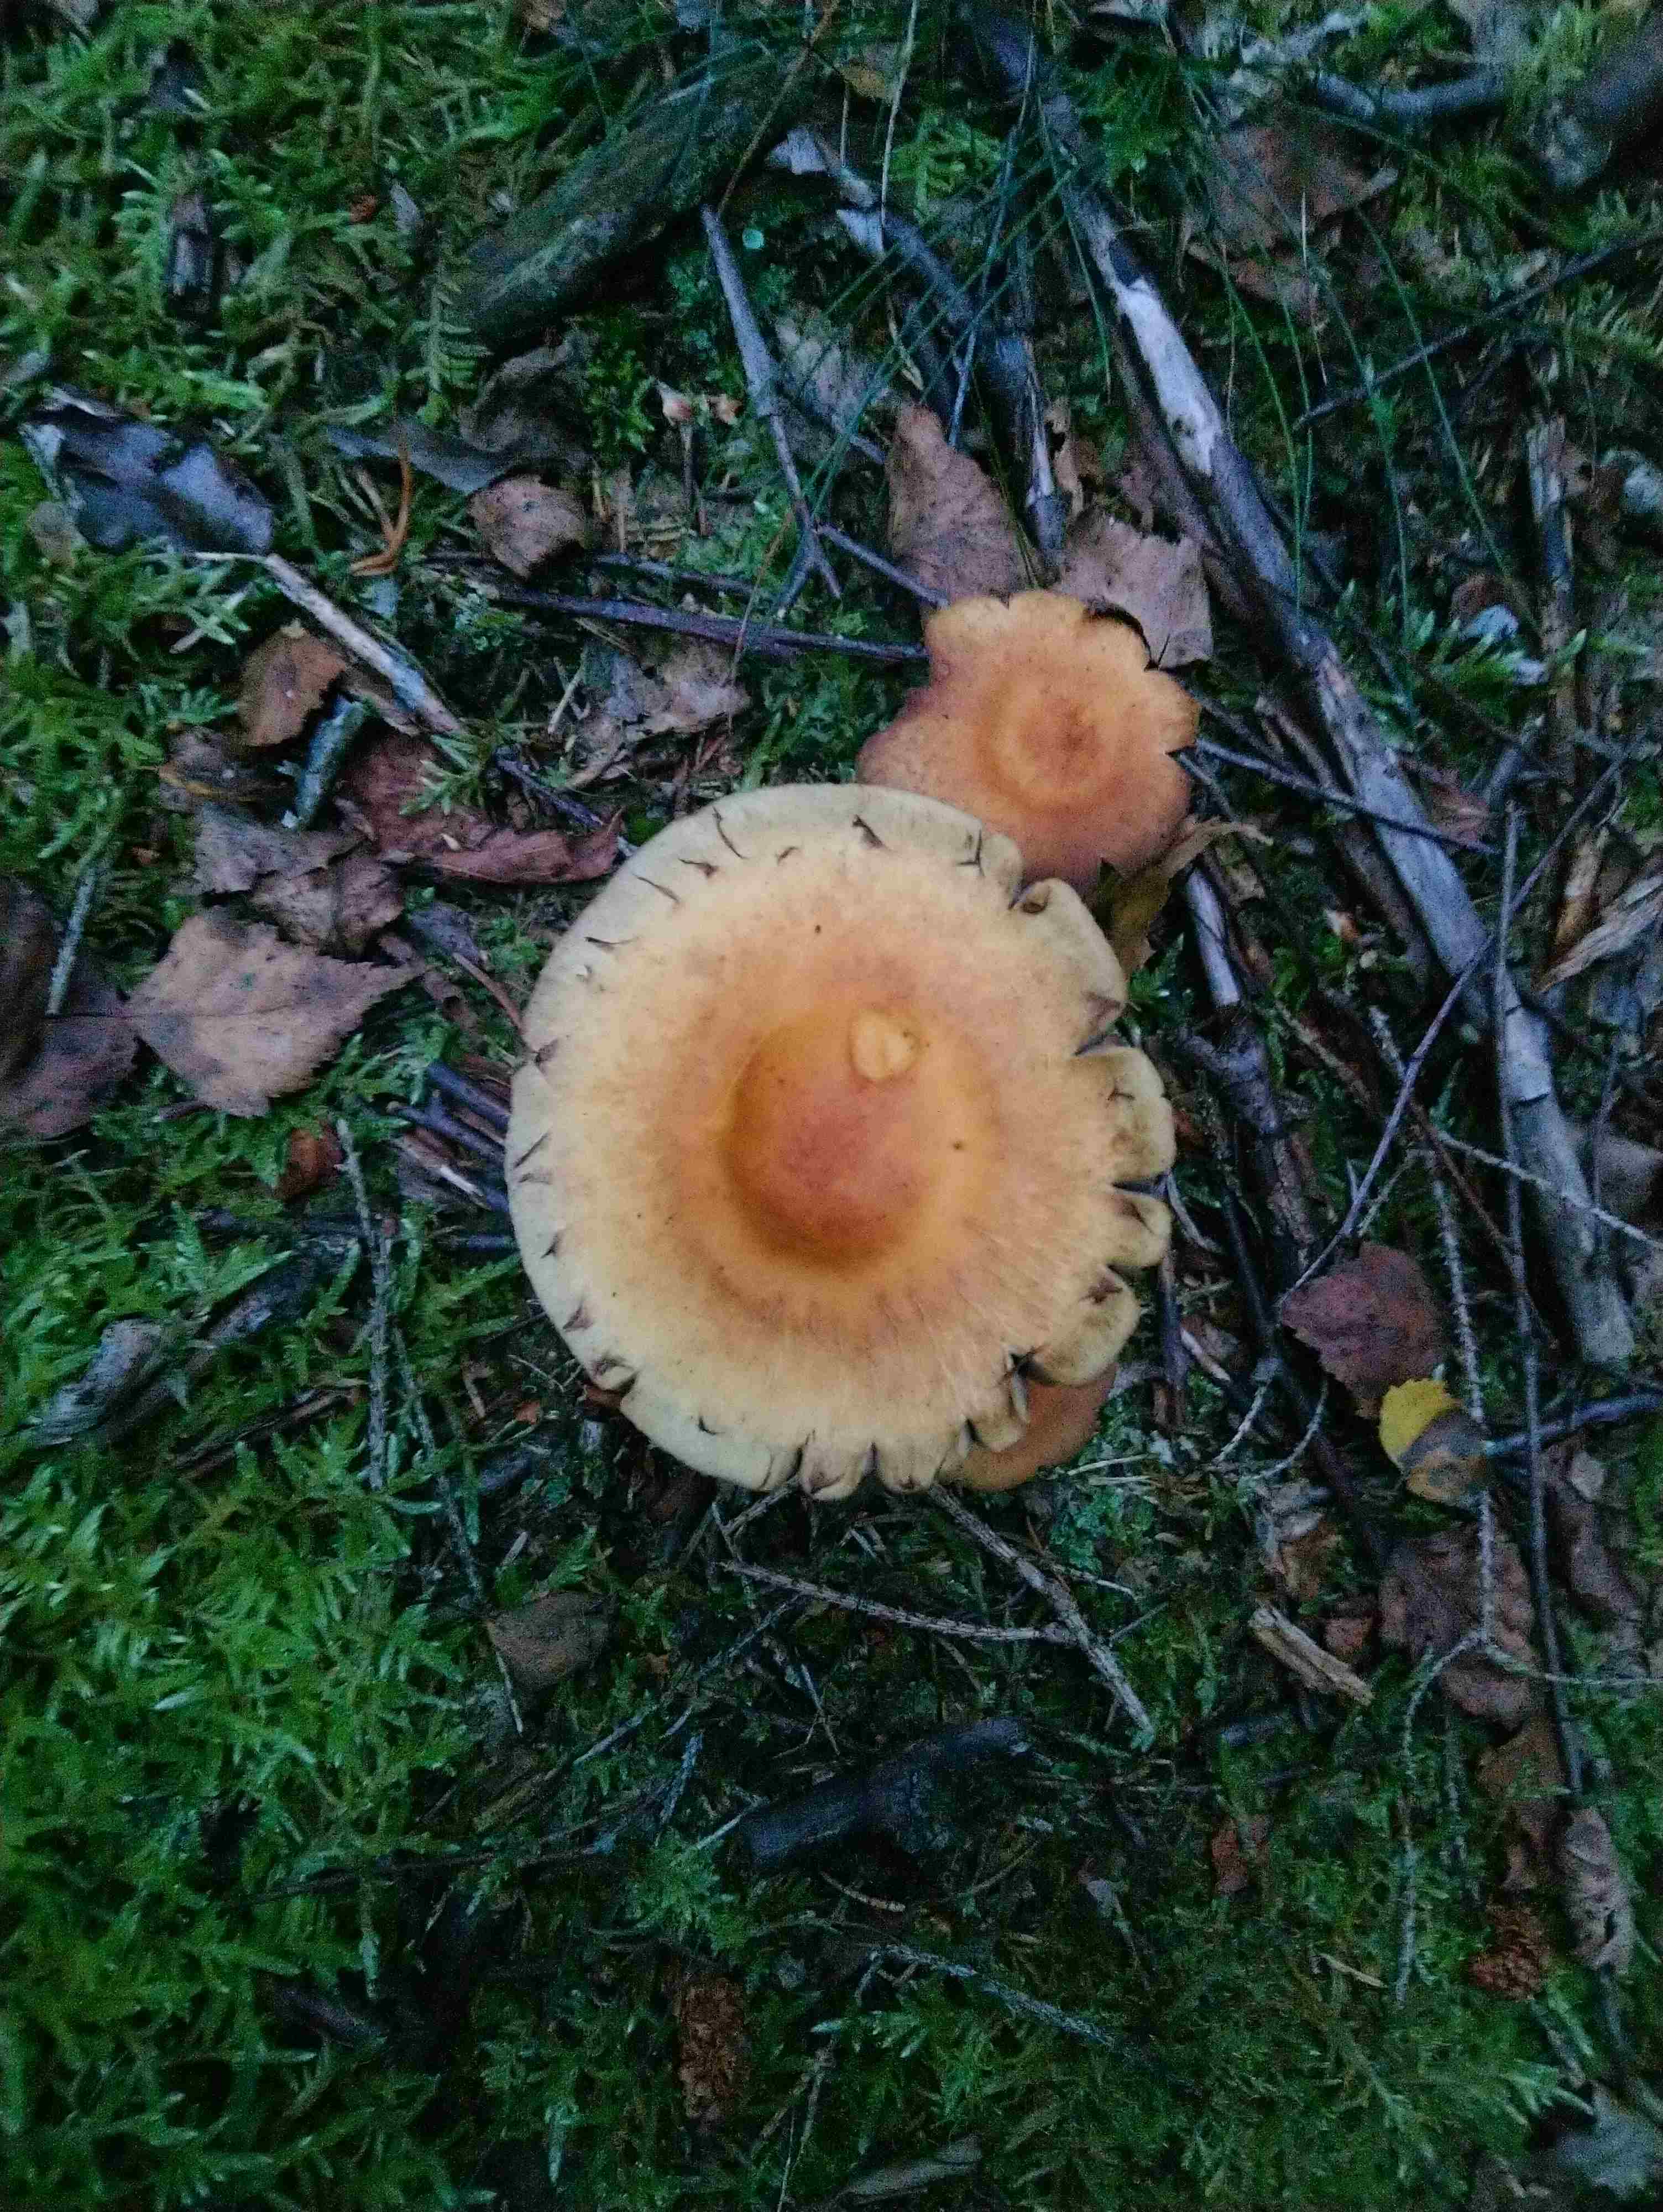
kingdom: Fungi
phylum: Basidiomycota
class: Agaricomycetes
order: Agaricales
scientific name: Agaricales
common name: champignonordenen
